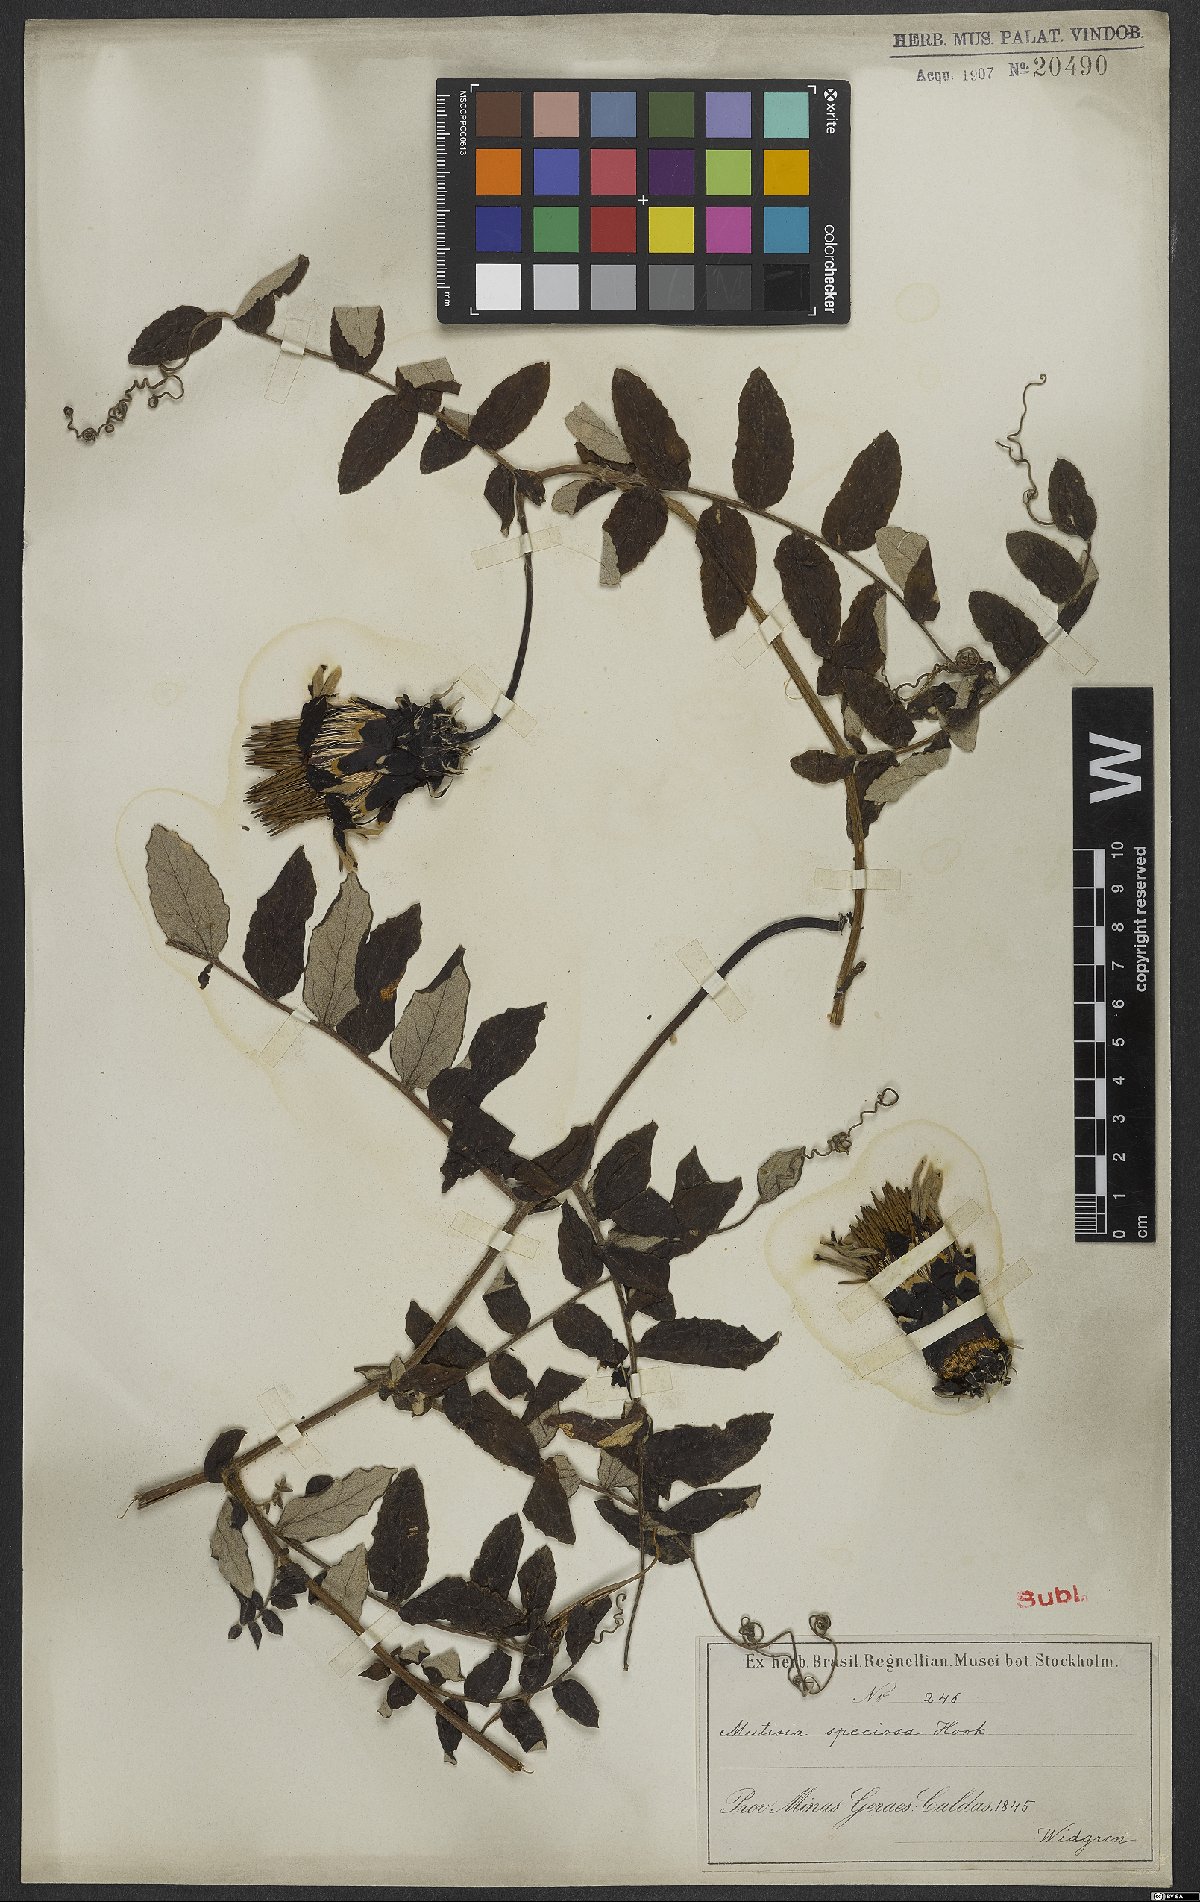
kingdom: Plantae
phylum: Tracheophyta
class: Magnoliopsida
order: Asterales
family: Asteraceae
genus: Mutisia
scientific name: Mutisia speciosa
